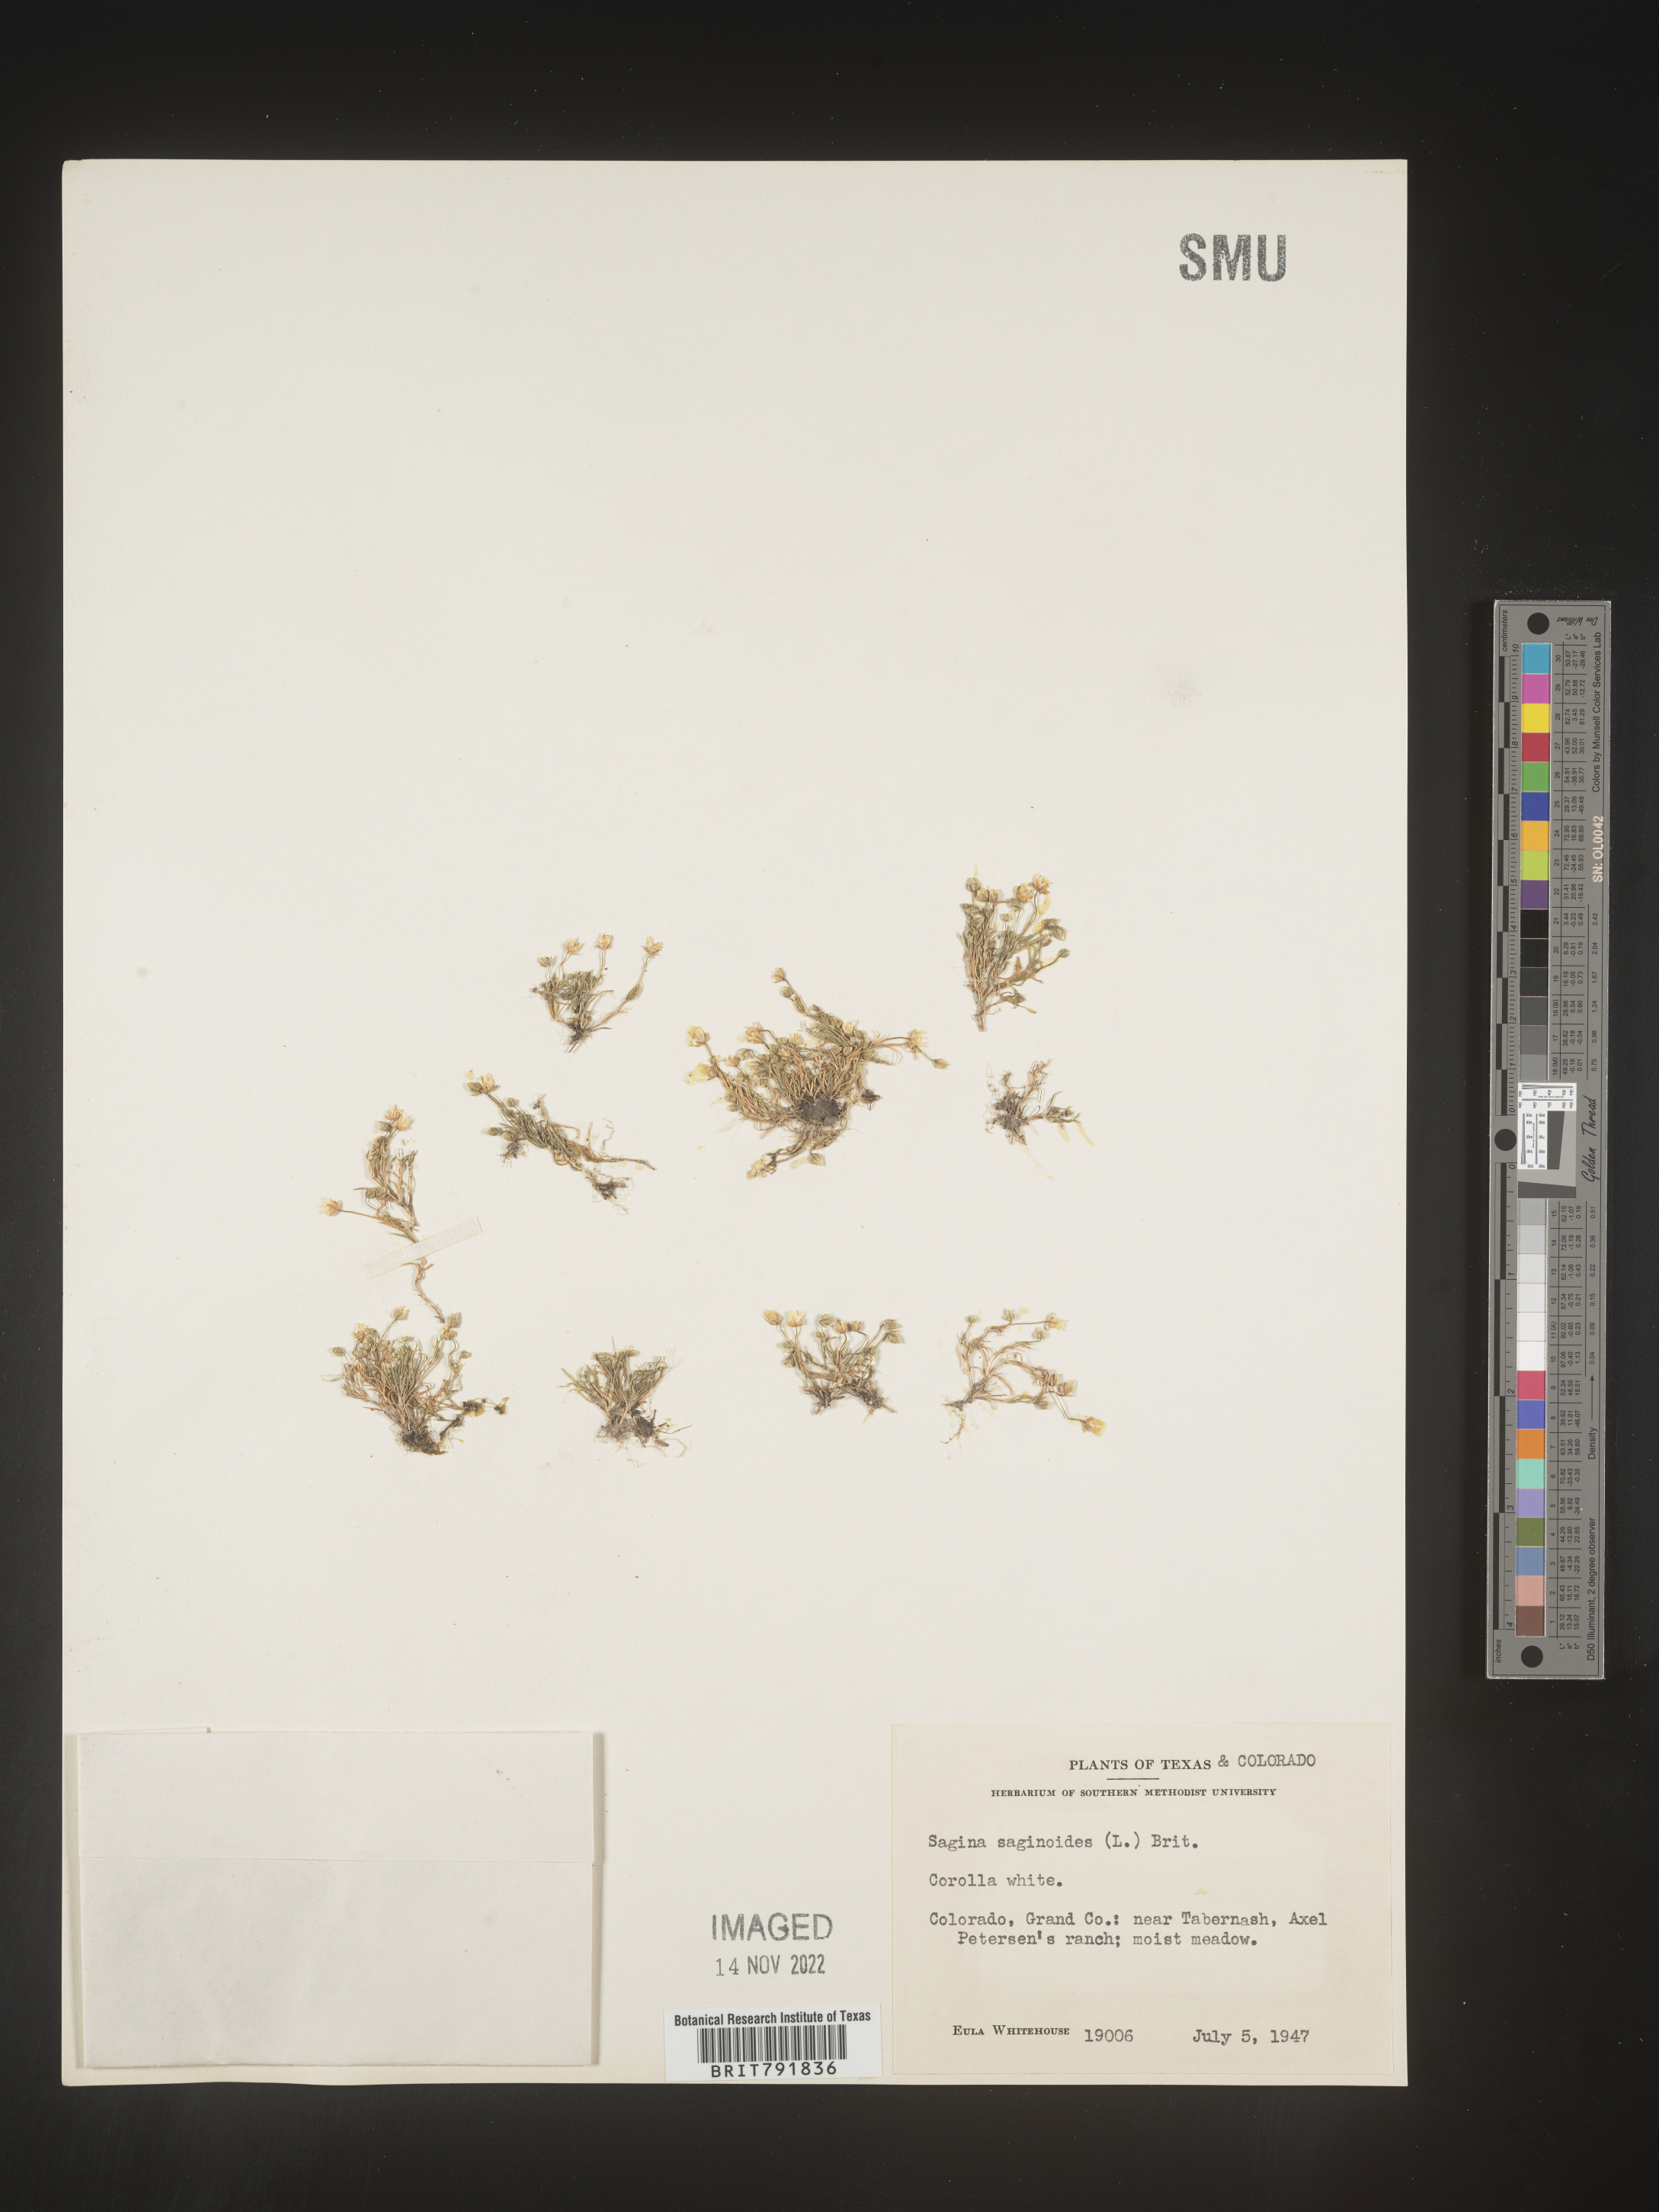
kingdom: Plantae
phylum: Tracheophyta
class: Magnoliopsida
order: Caryophyllales
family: Caryophyllaceae
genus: Sagina
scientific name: Sagina
